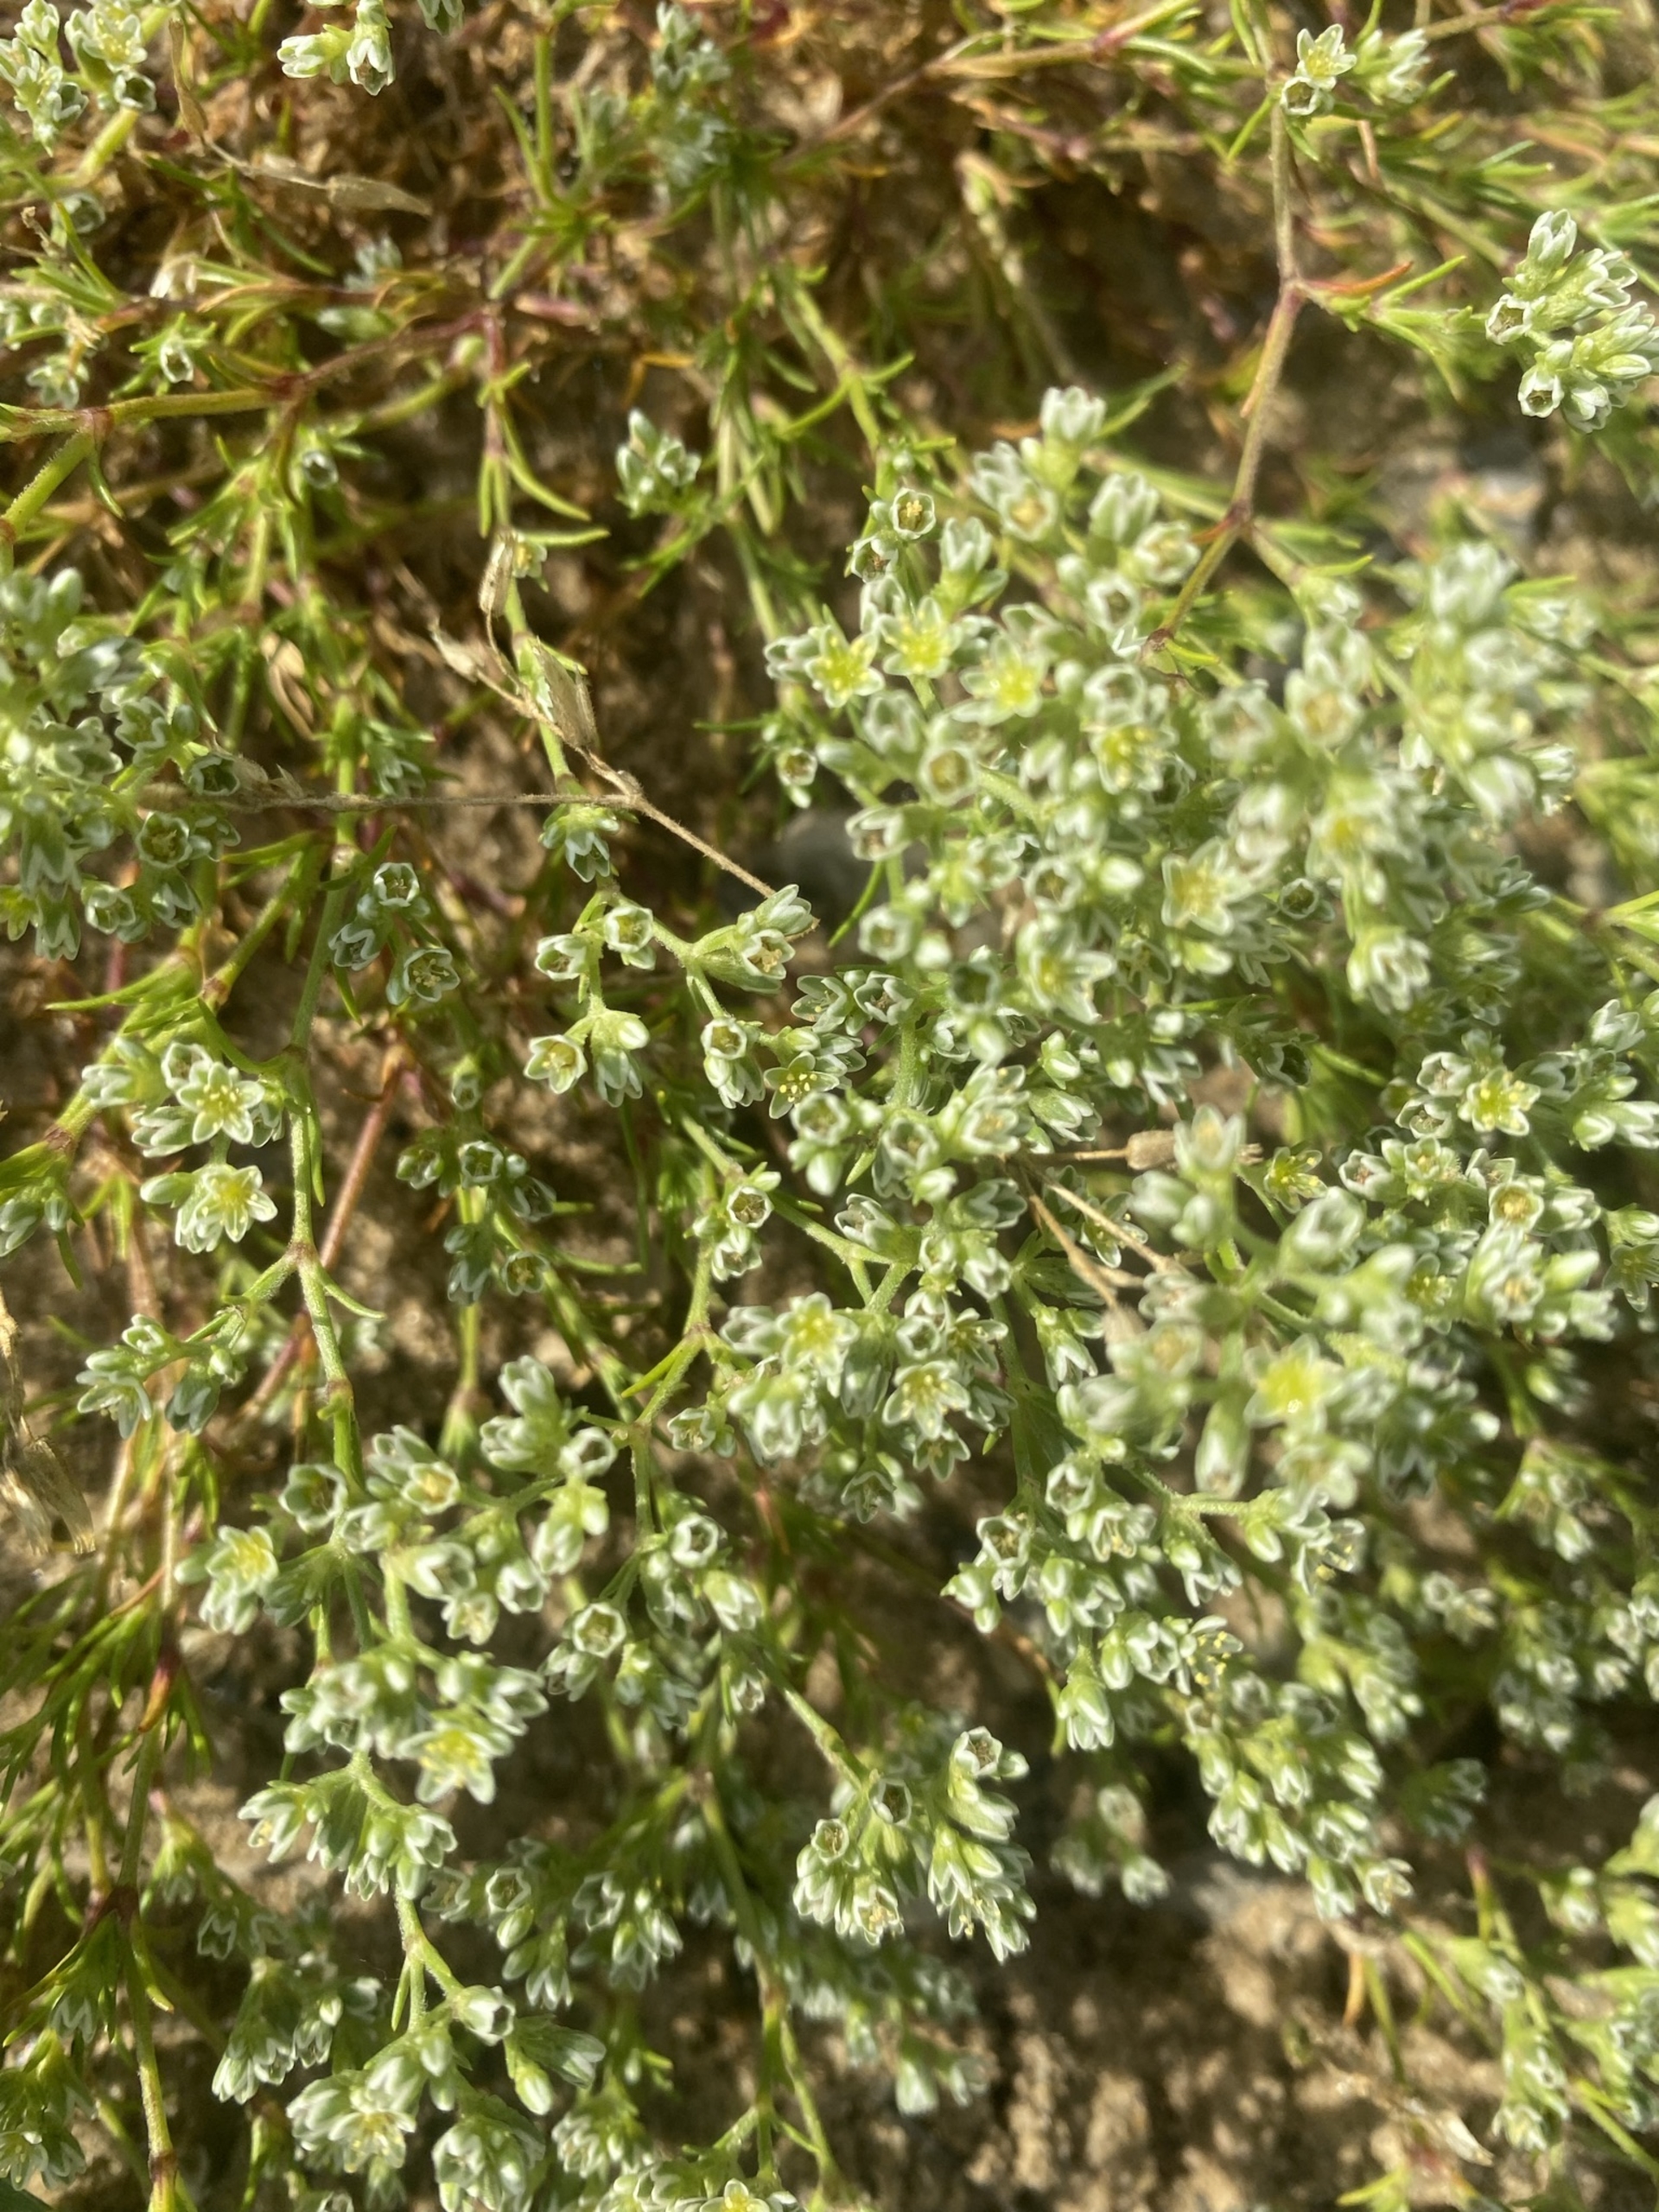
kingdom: Plantae
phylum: Tracheophyta
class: Magnoliopsida
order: Caryophyllales
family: Caryophyllaceae
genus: Scleranthus
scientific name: Scleranthus perennis
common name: Flerårig knavel
